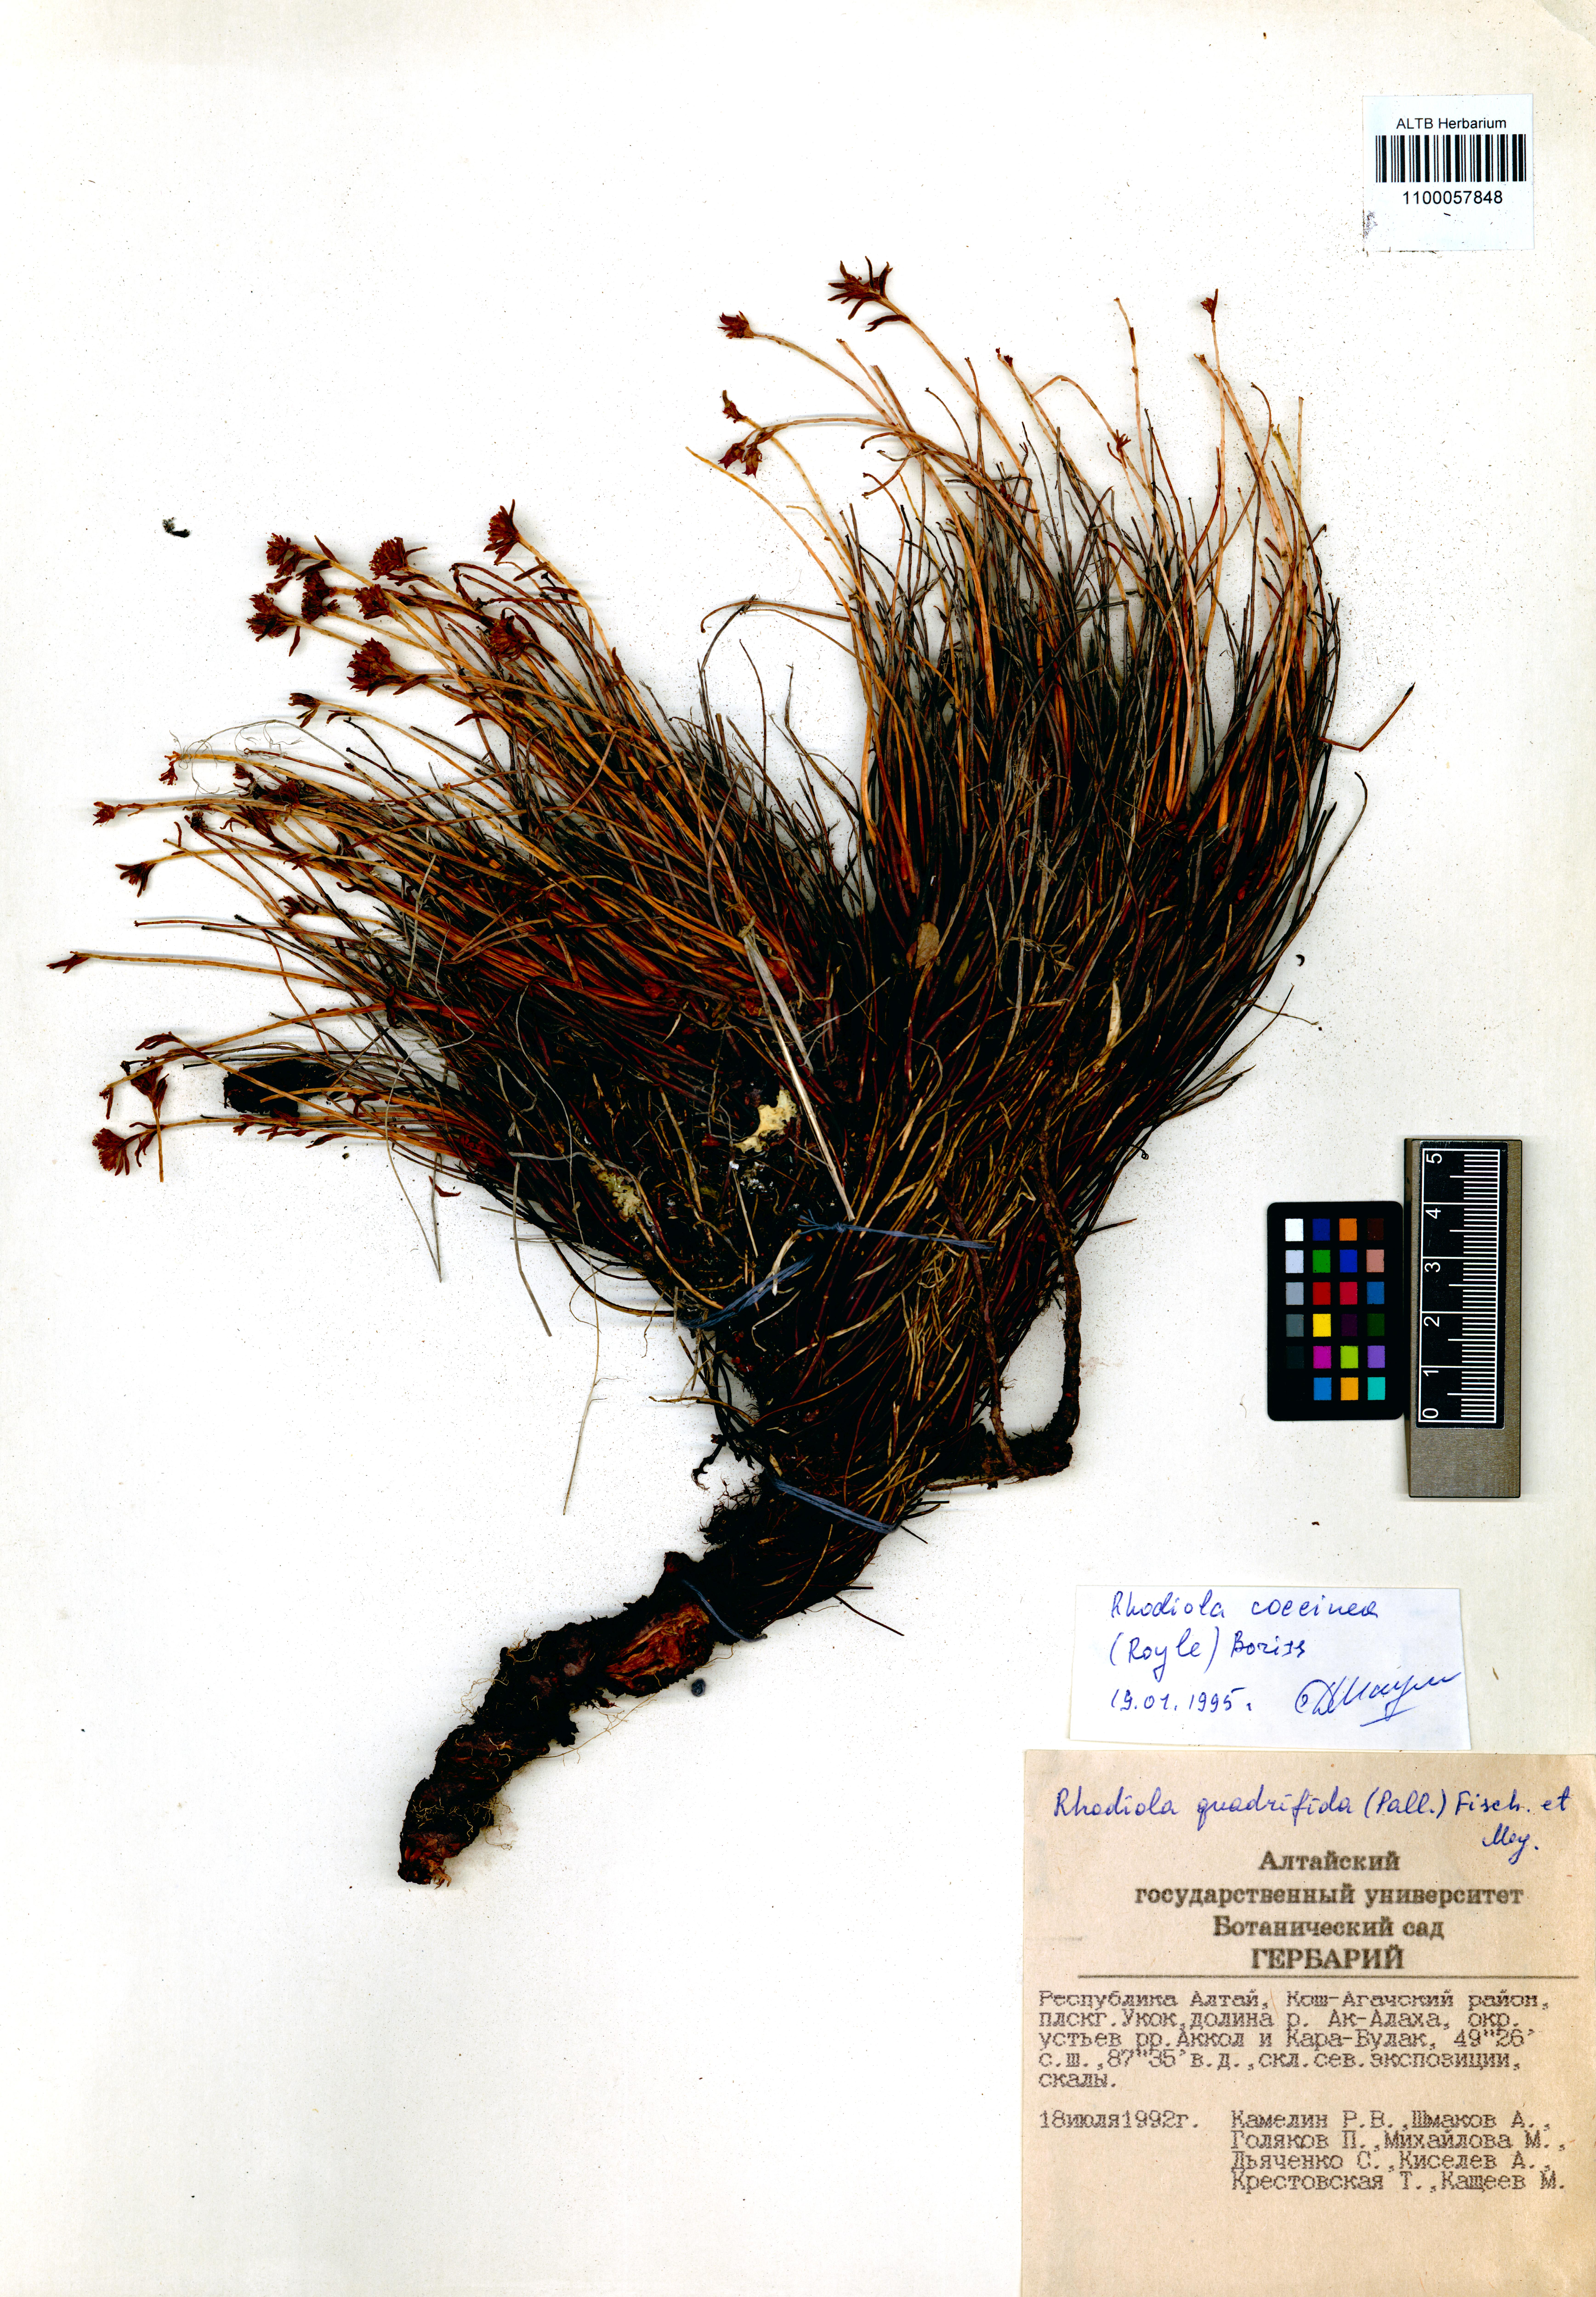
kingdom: Plantae
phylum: Tracheophyta
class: Magnoliopsida
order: Saxifragales
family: Crassulaceae
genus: Rhodiola
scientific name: Rhodiola coccinea
